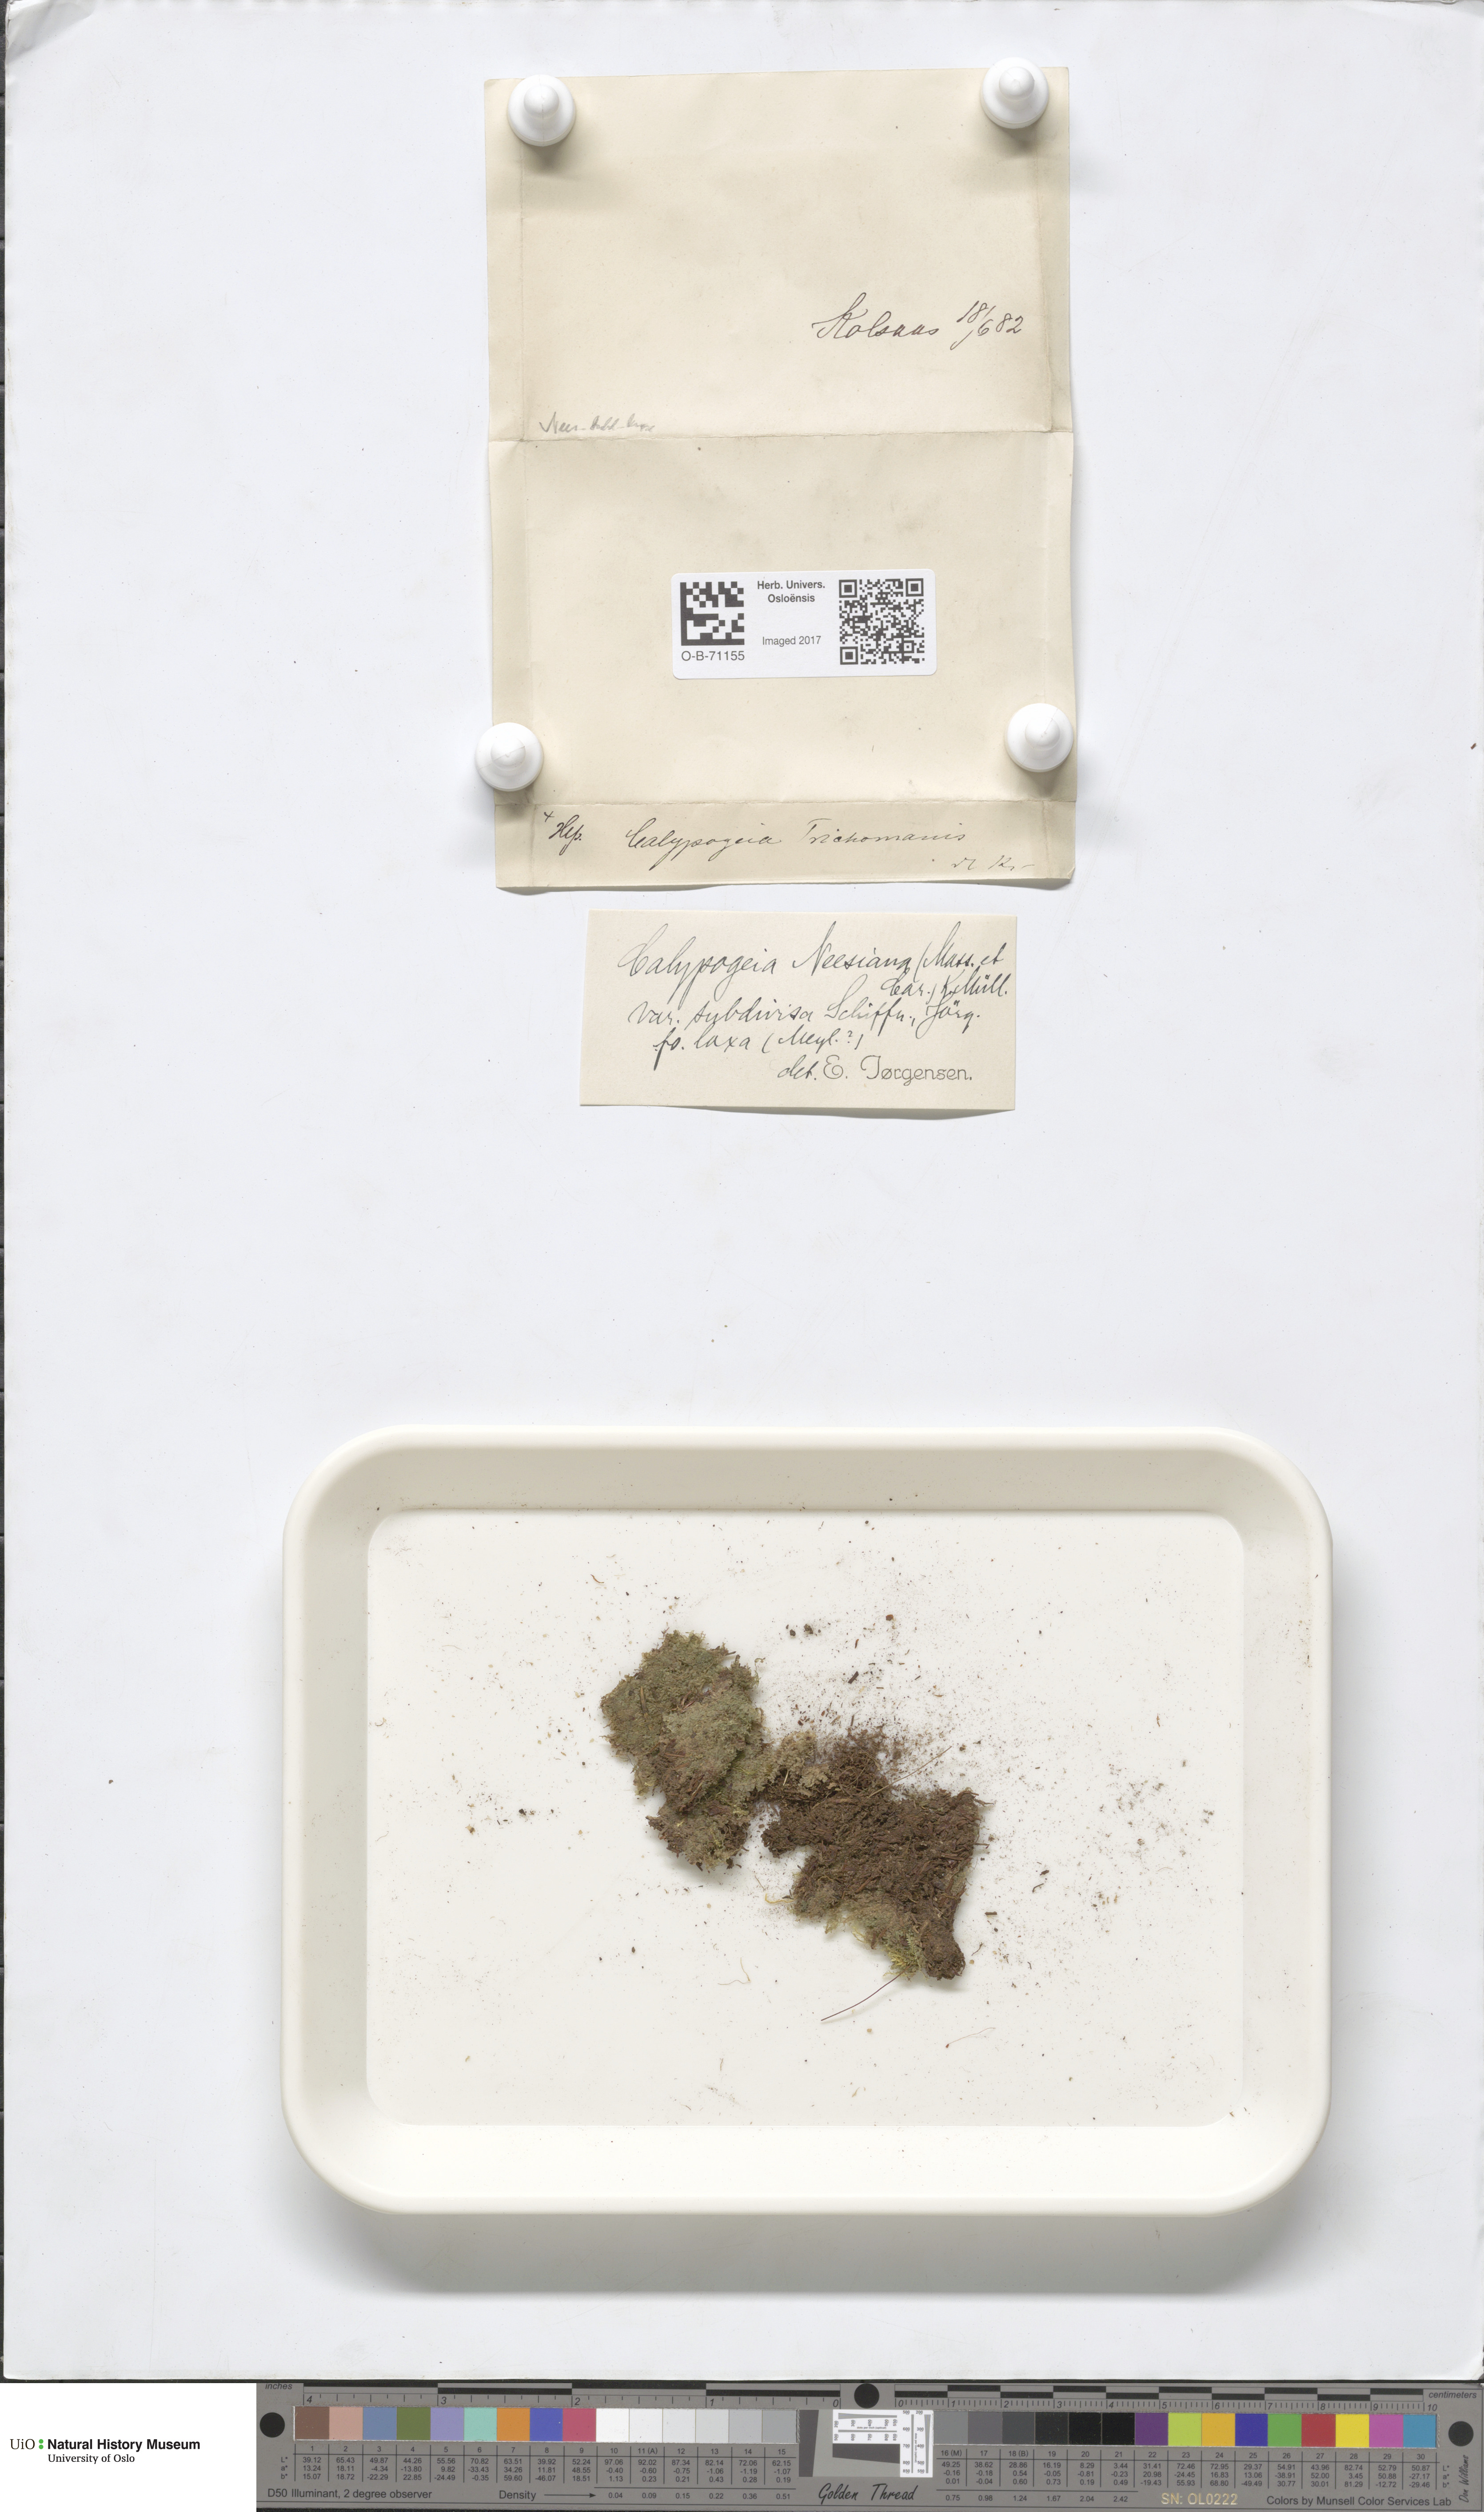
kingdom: Plantae
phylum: Marchantiophyta
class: Jungermanniopsida
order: Jungermanniales
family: Calypogeiaceae
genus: Calypogeia
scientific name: Calypogeia neesiana
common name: Nees  pouchwort
